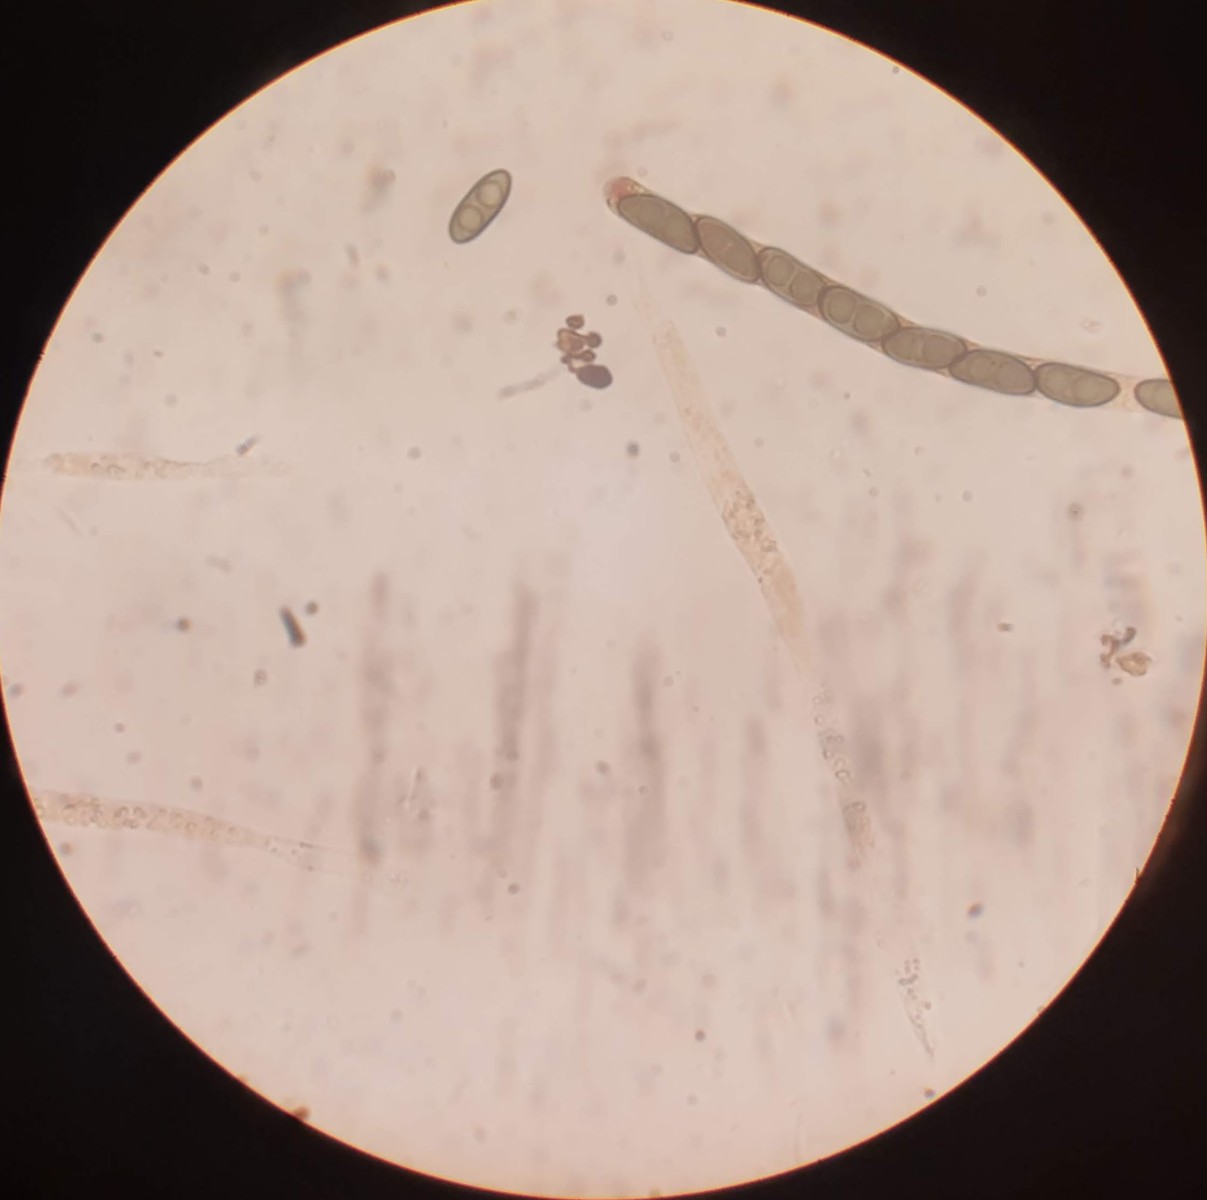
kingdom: Fungi
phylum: Ascomycota
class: Sordariomycetes
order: Xylariales
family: Xylariaceae
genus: Nemania
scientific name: Nemania serpens
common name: almindelig kuldyne
